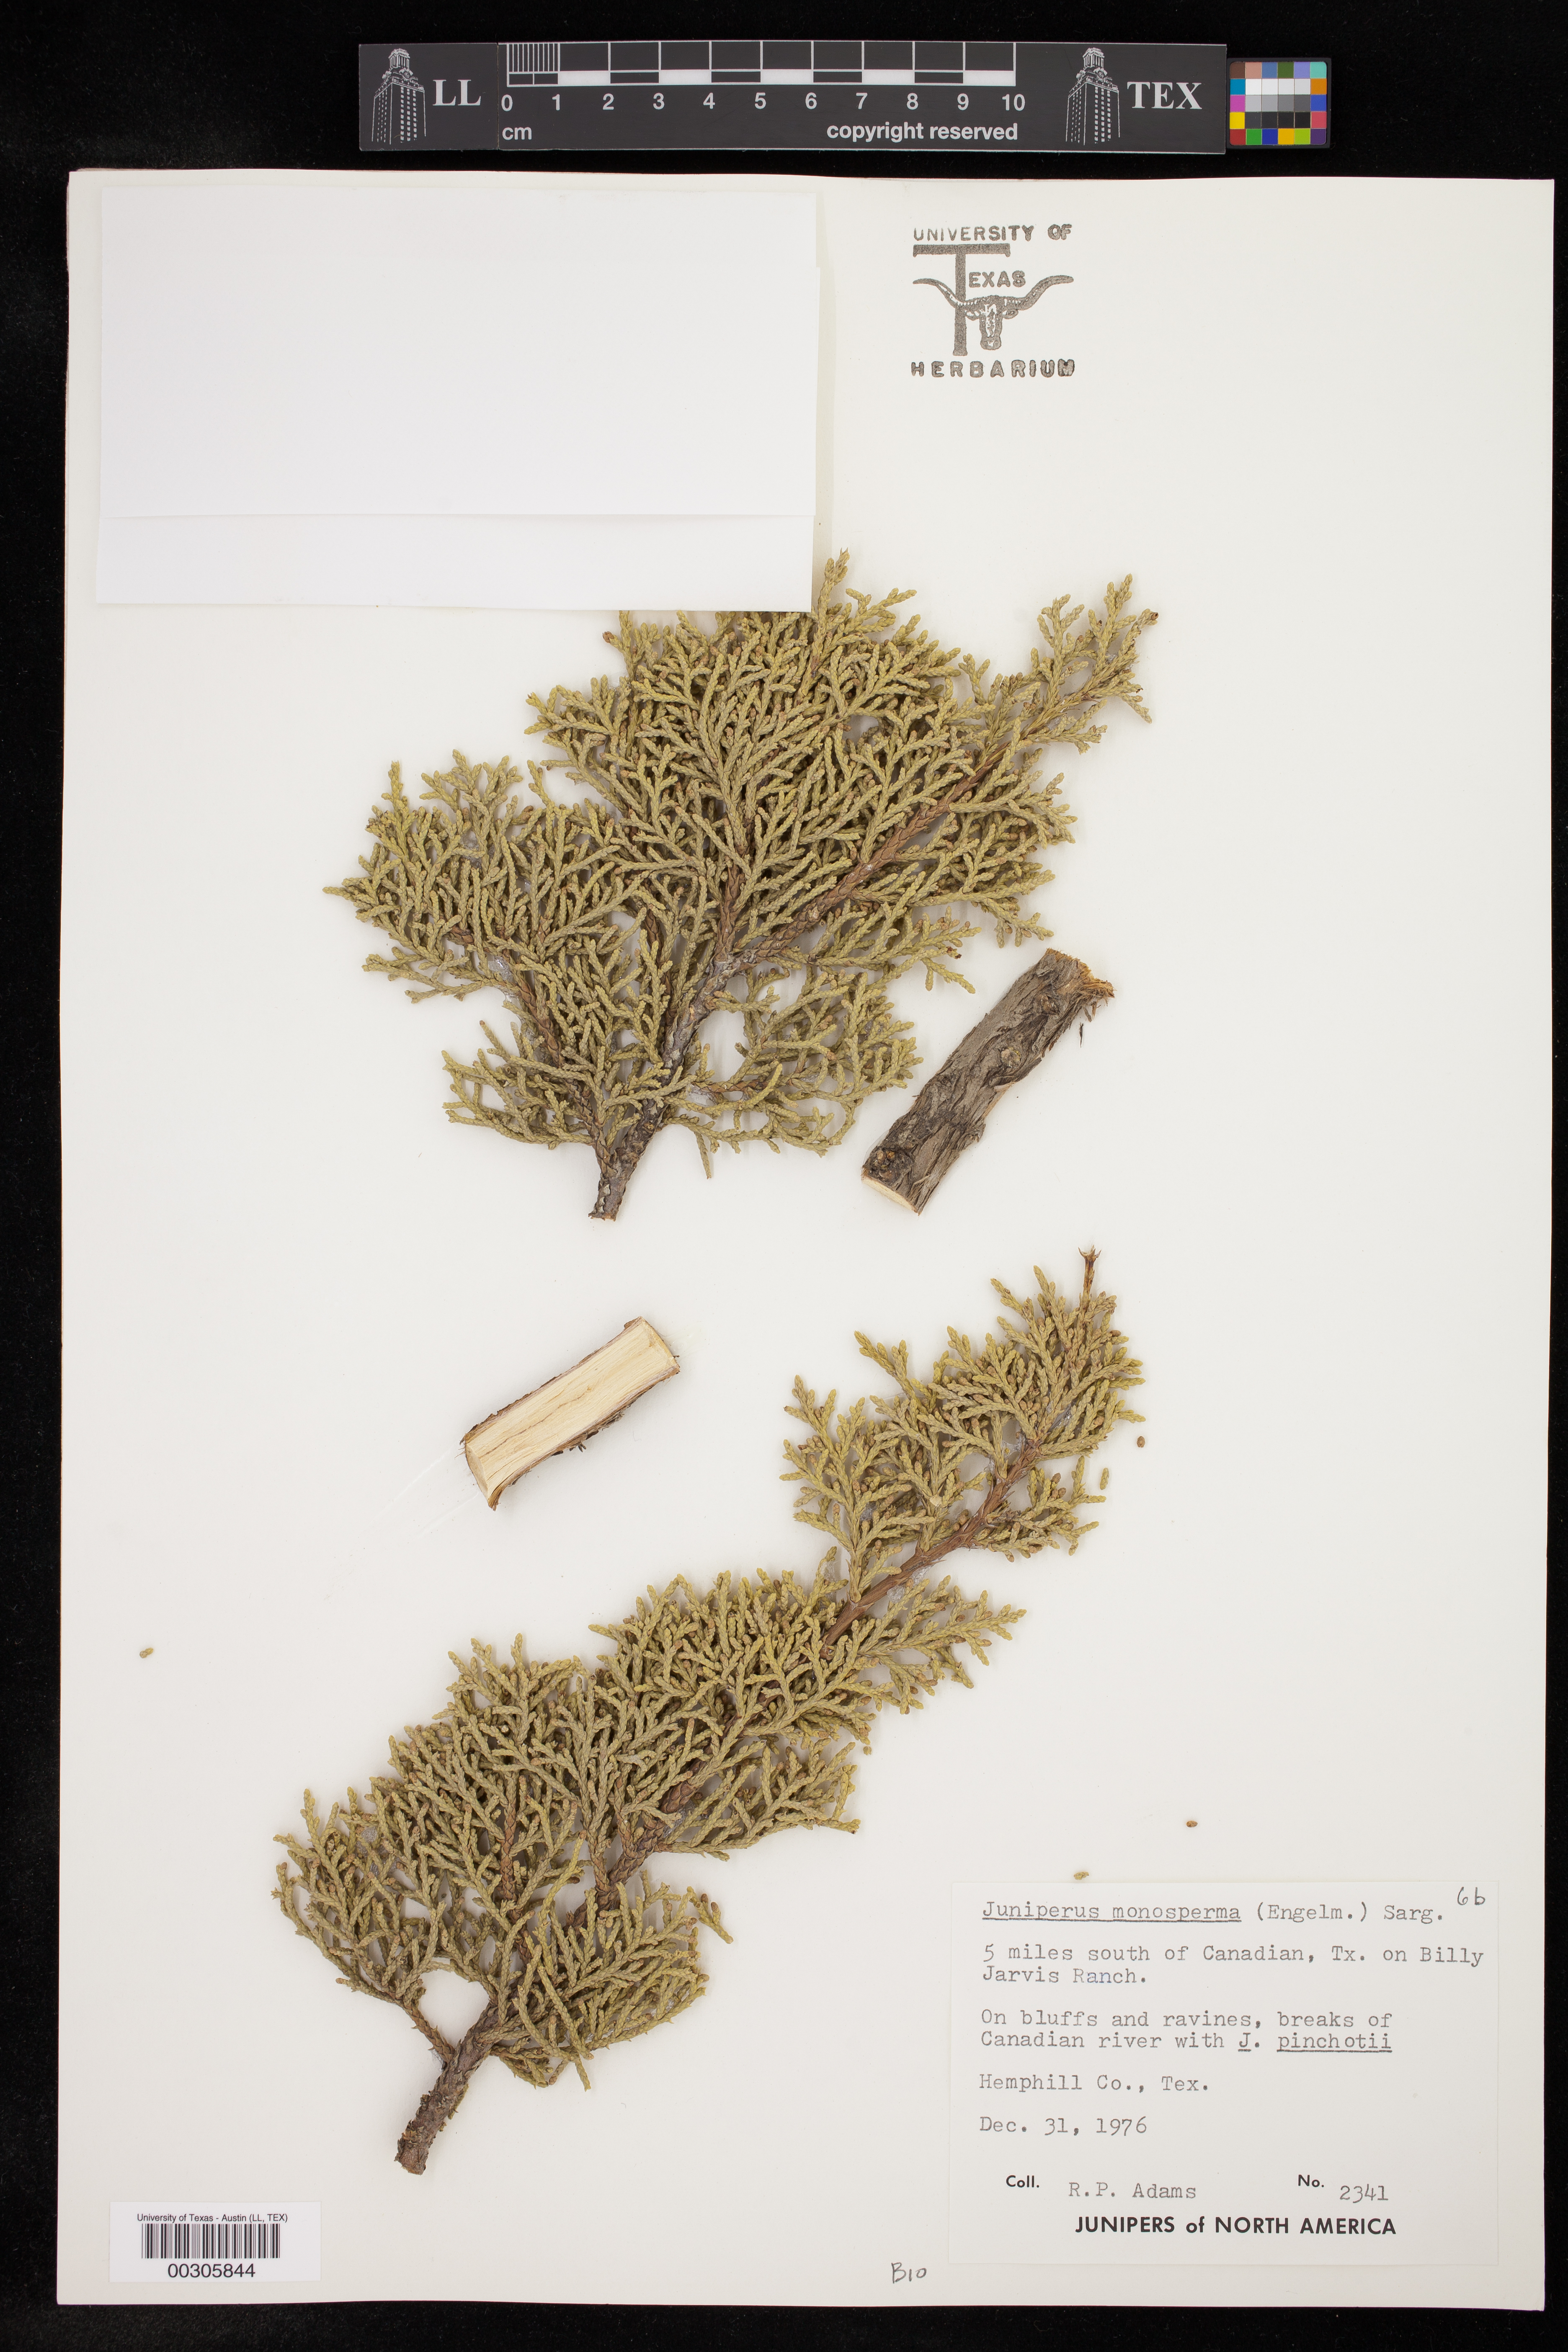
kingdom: Plantae
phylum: Tracheophyta
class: Pinopsida
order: Pinales
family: Cupressaceae
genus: Juniperus
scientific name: Juniperus monosperma
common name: One-seed juniper
